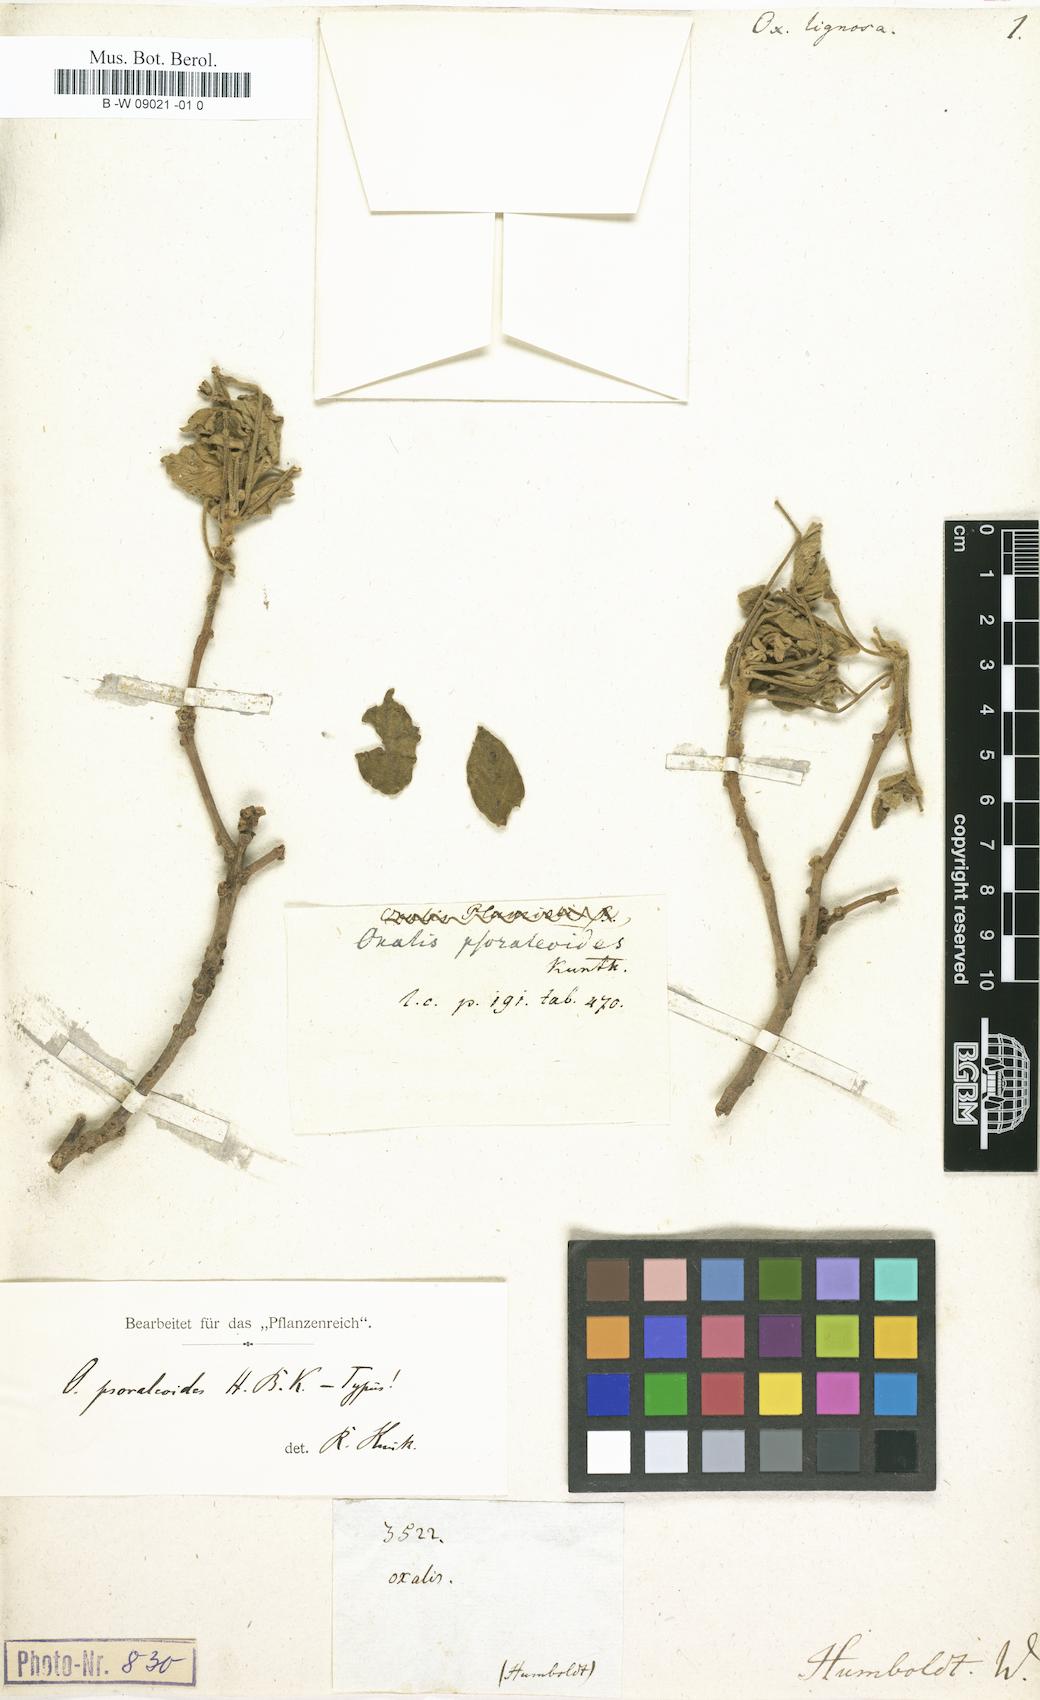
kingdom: Plantae
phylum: Tracheophyta
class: Magnoliopsida
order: Oxalidales
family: Oxalidaceae
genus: Oxalis
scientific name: Oxalis spruceana
